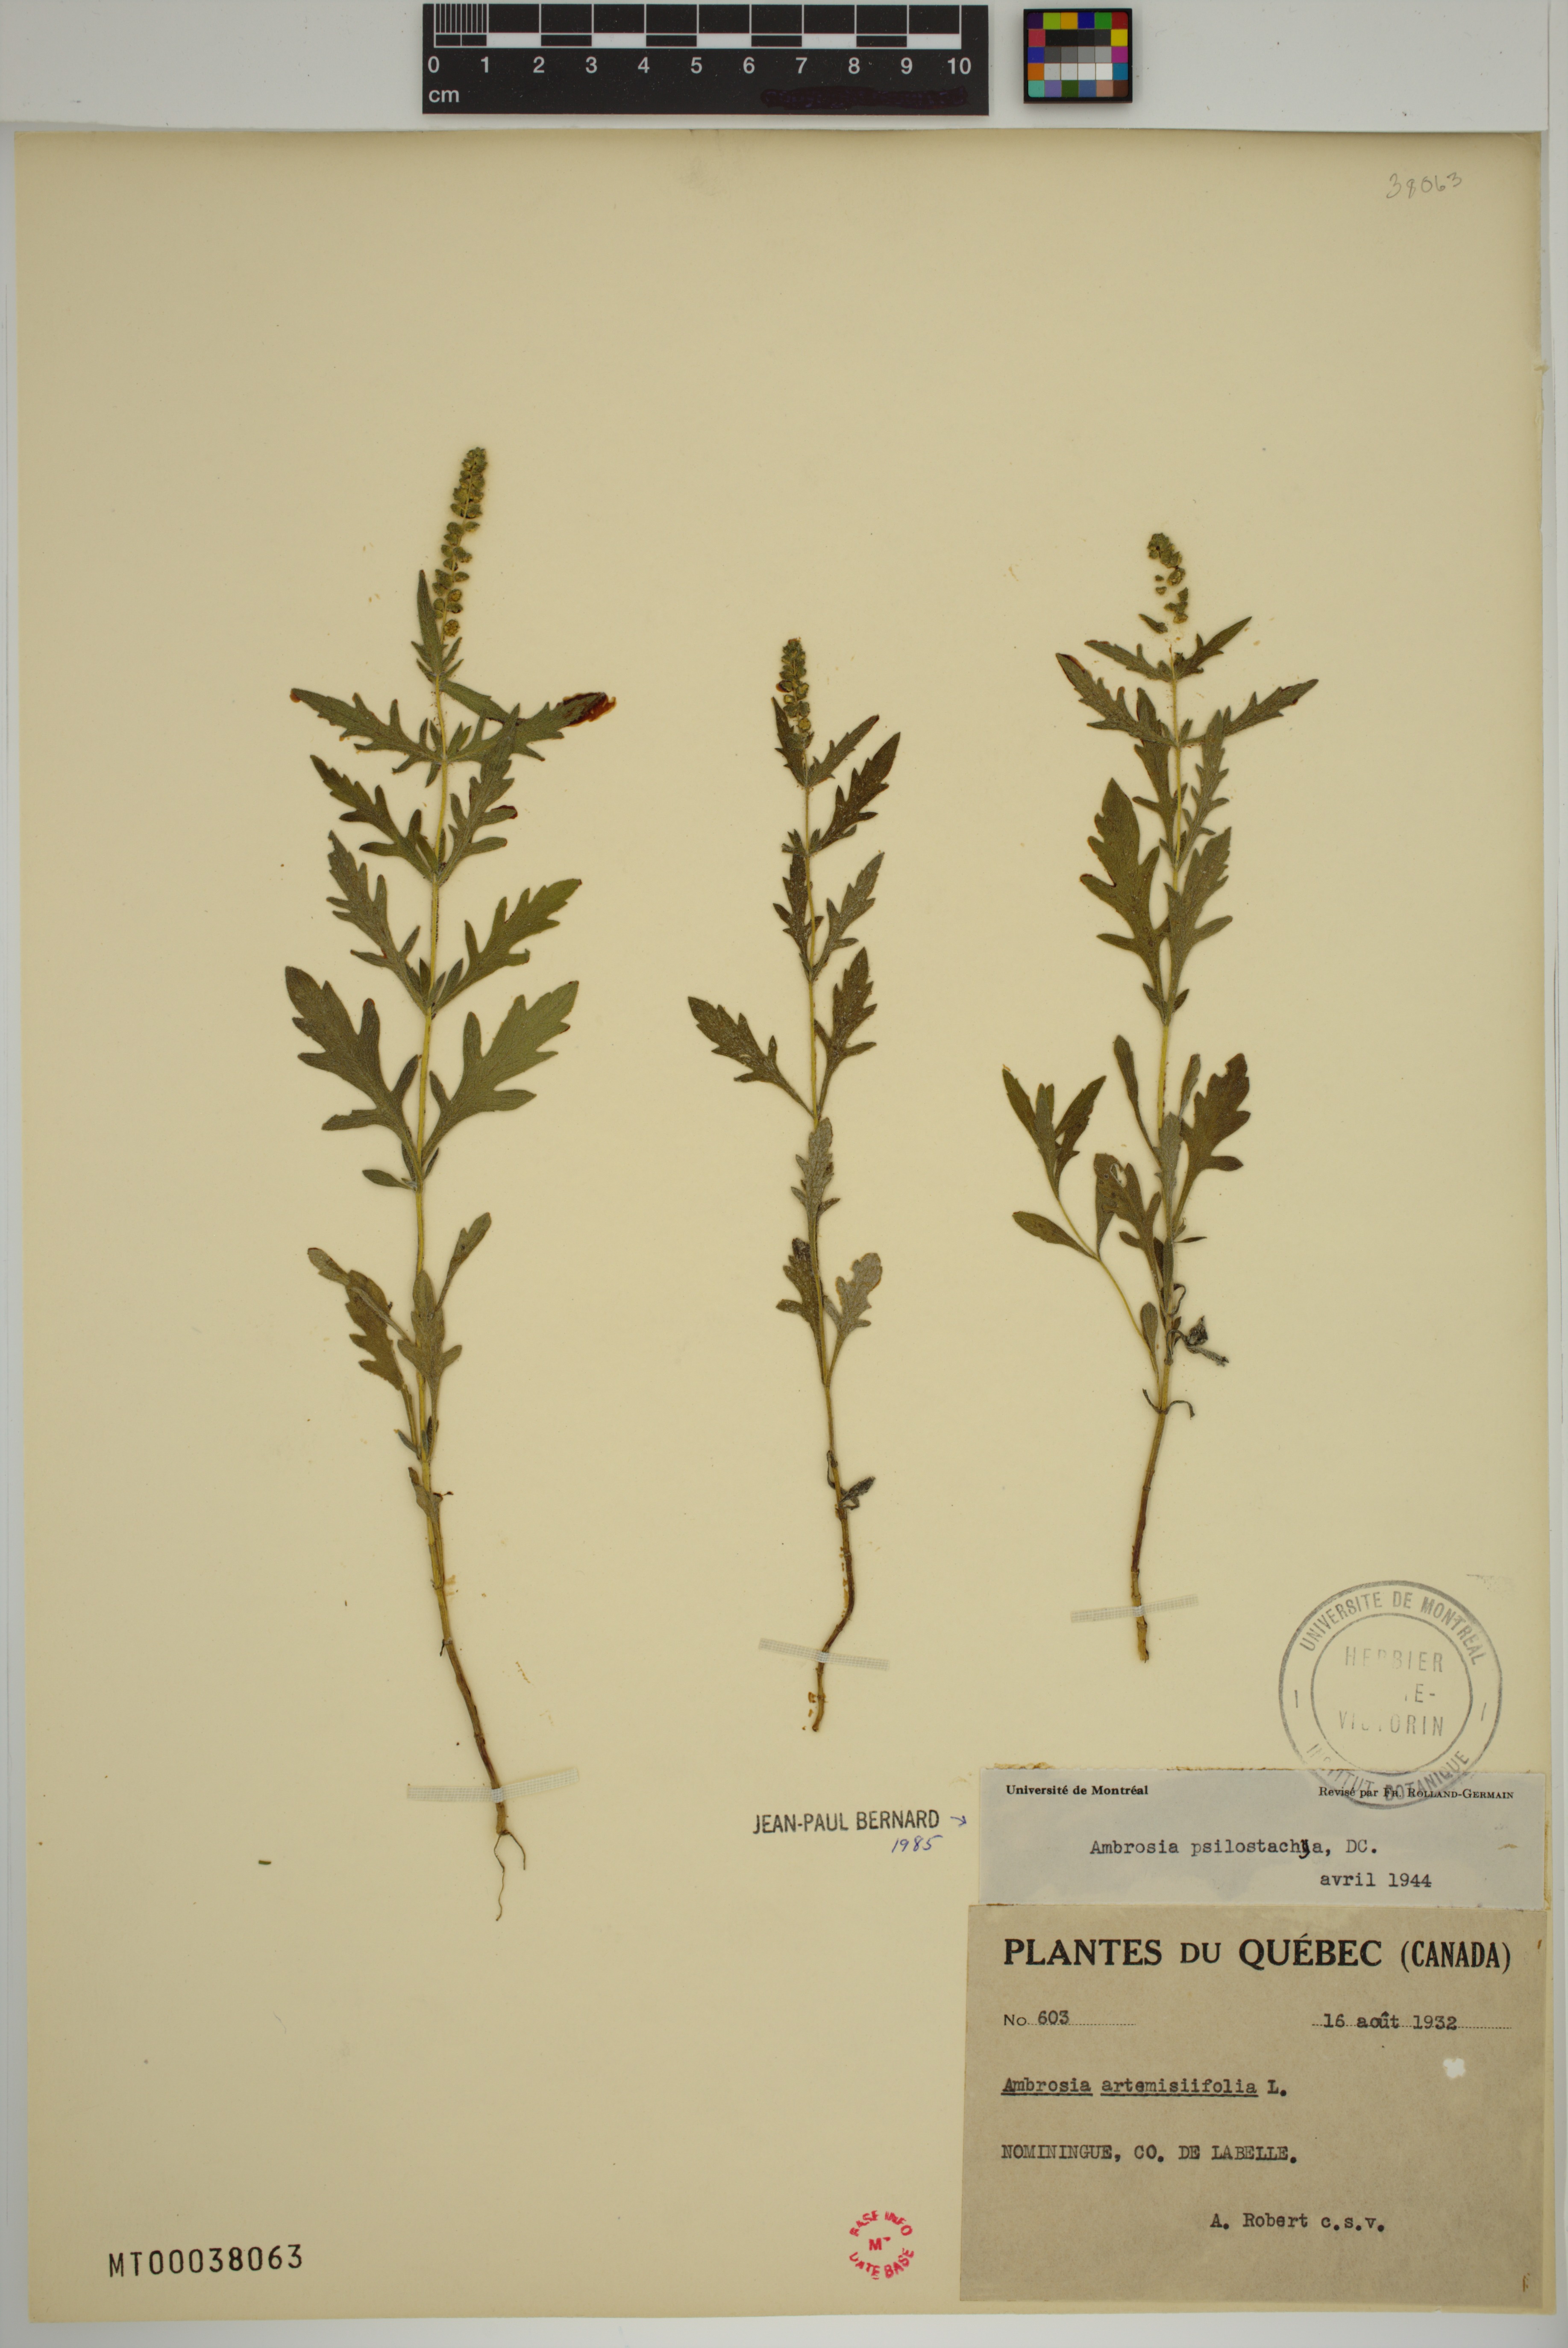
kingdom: Plantae
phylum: Tracheophyta
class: Magnoliopsida
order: Asterales
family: Asteraceae
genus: Ambrosia
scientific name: Ambrosia psilostachya
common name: Perennial ragweed
